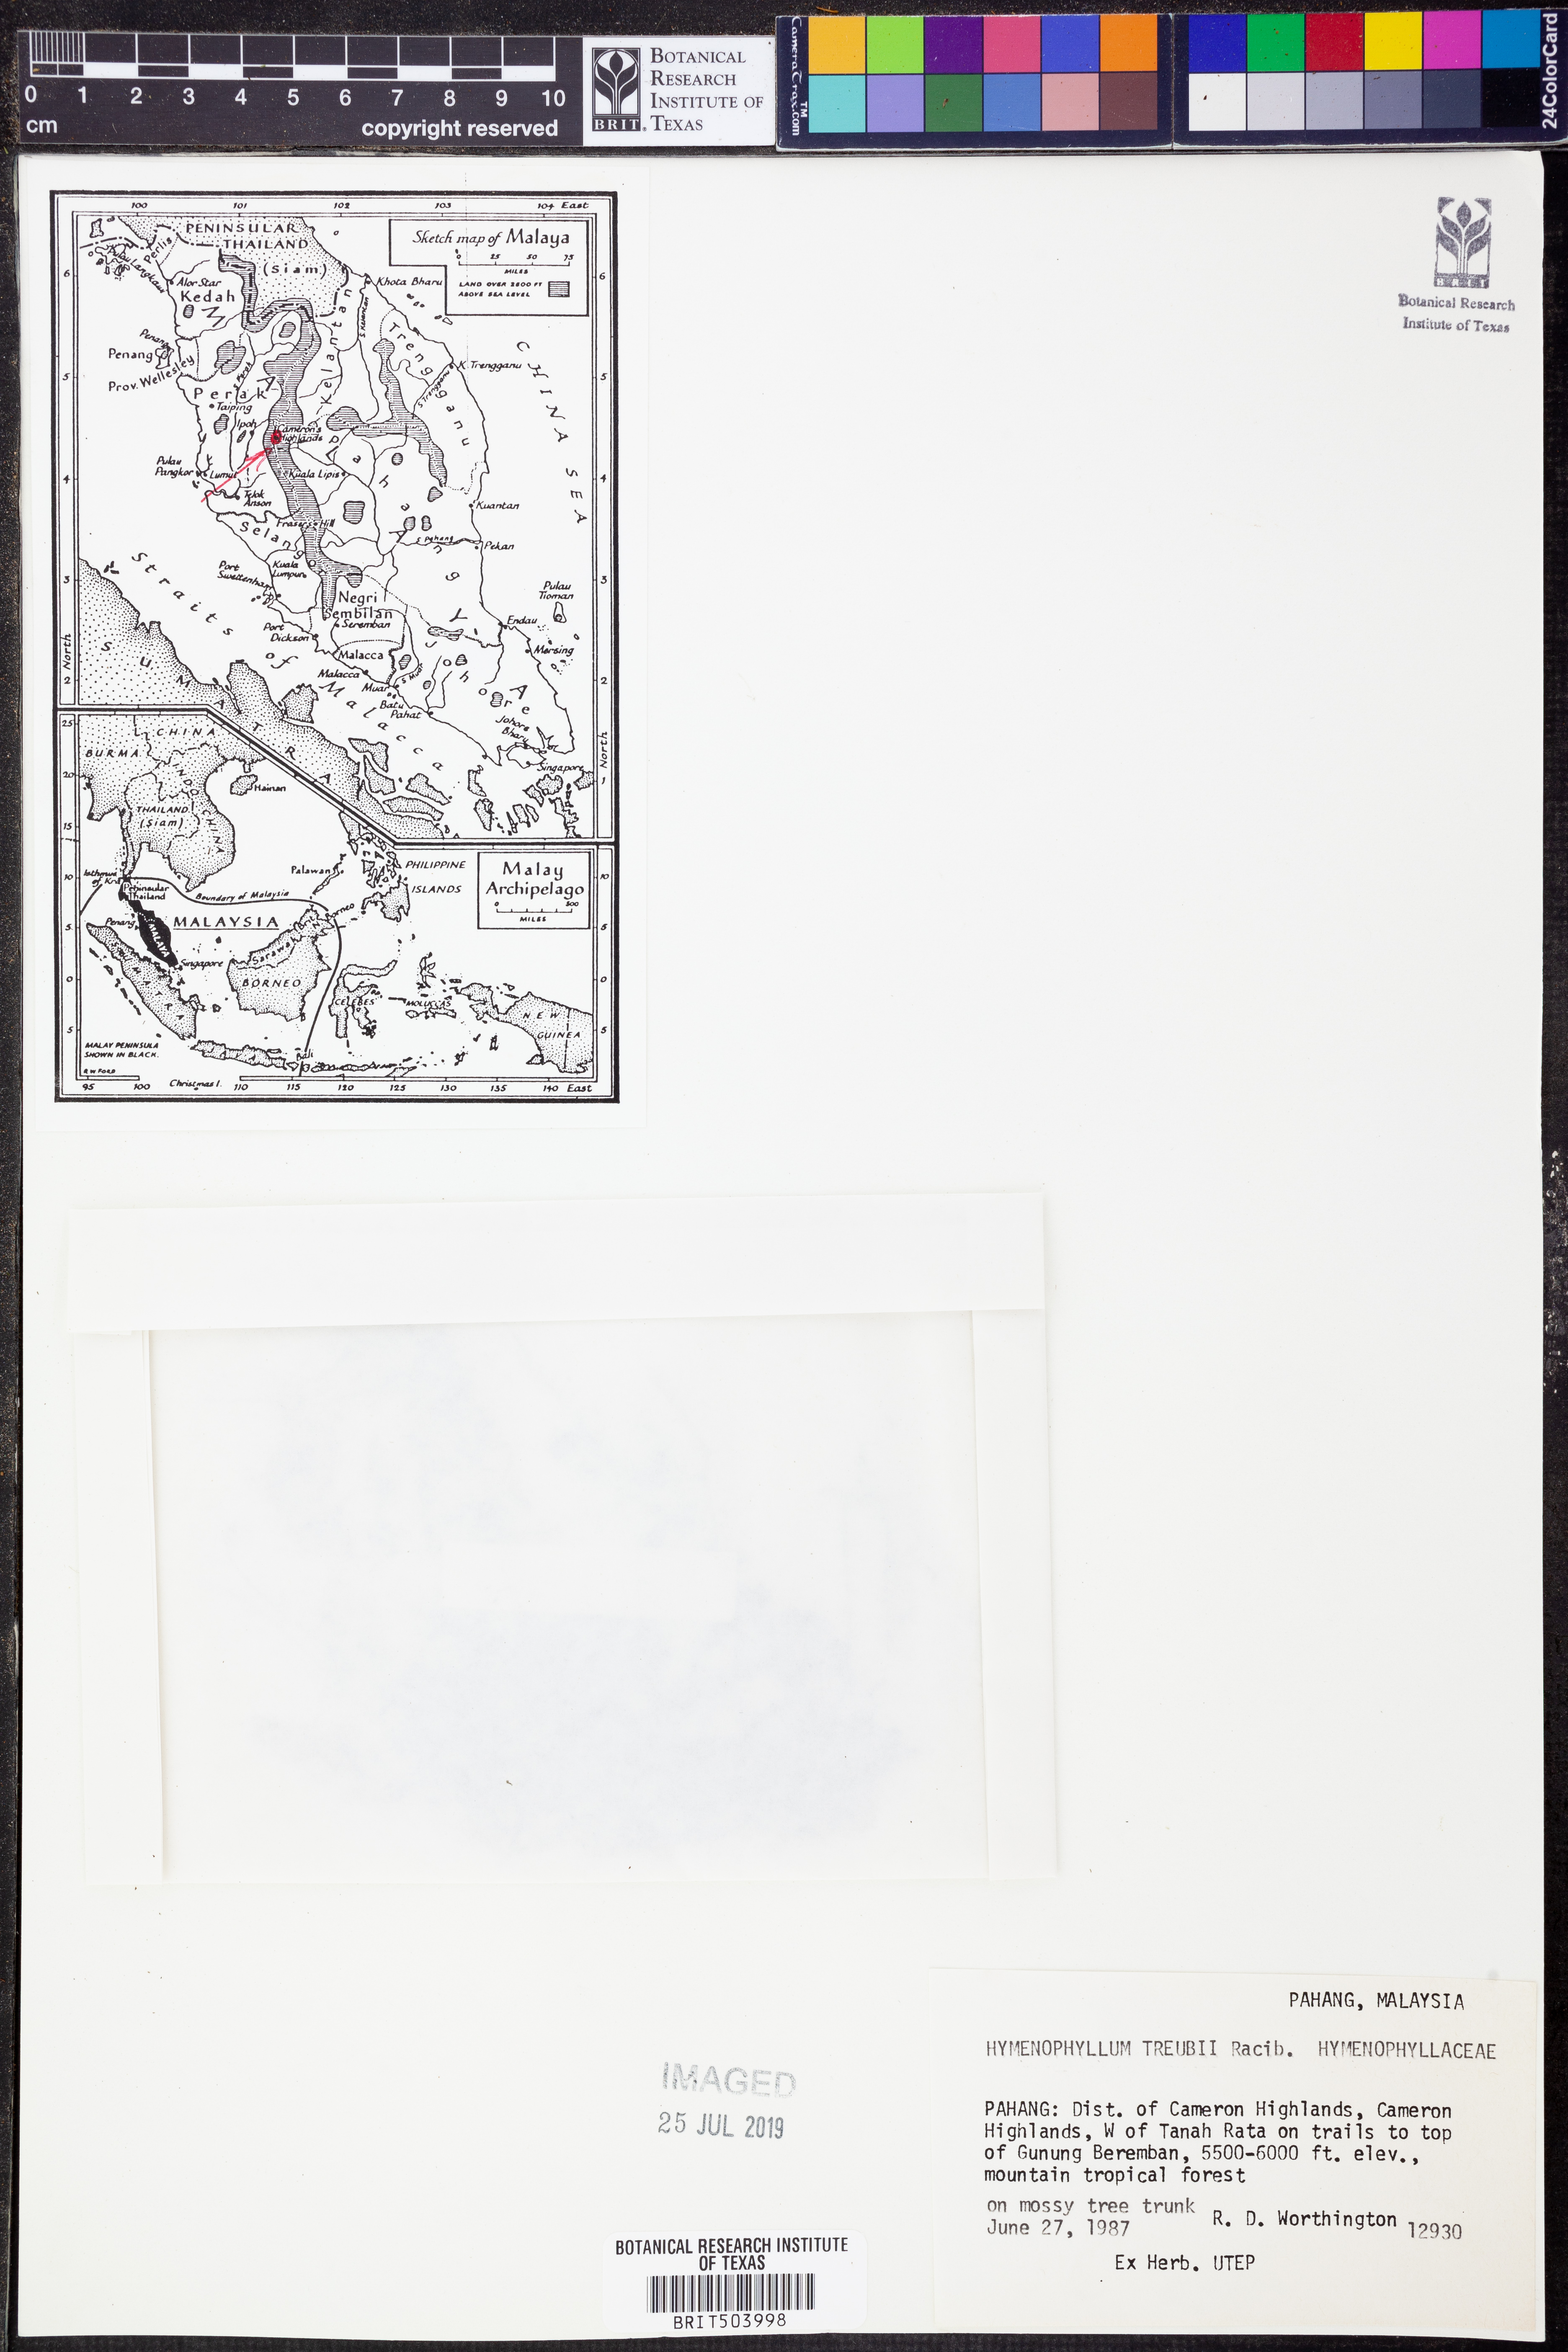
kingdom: Plantae
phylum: Tracheophyta
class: Polypodiopsida
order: Hymenophyllales
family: Hymenophyllaceae
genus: Hymenophyllum
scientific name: Hymenophyllum treubii
